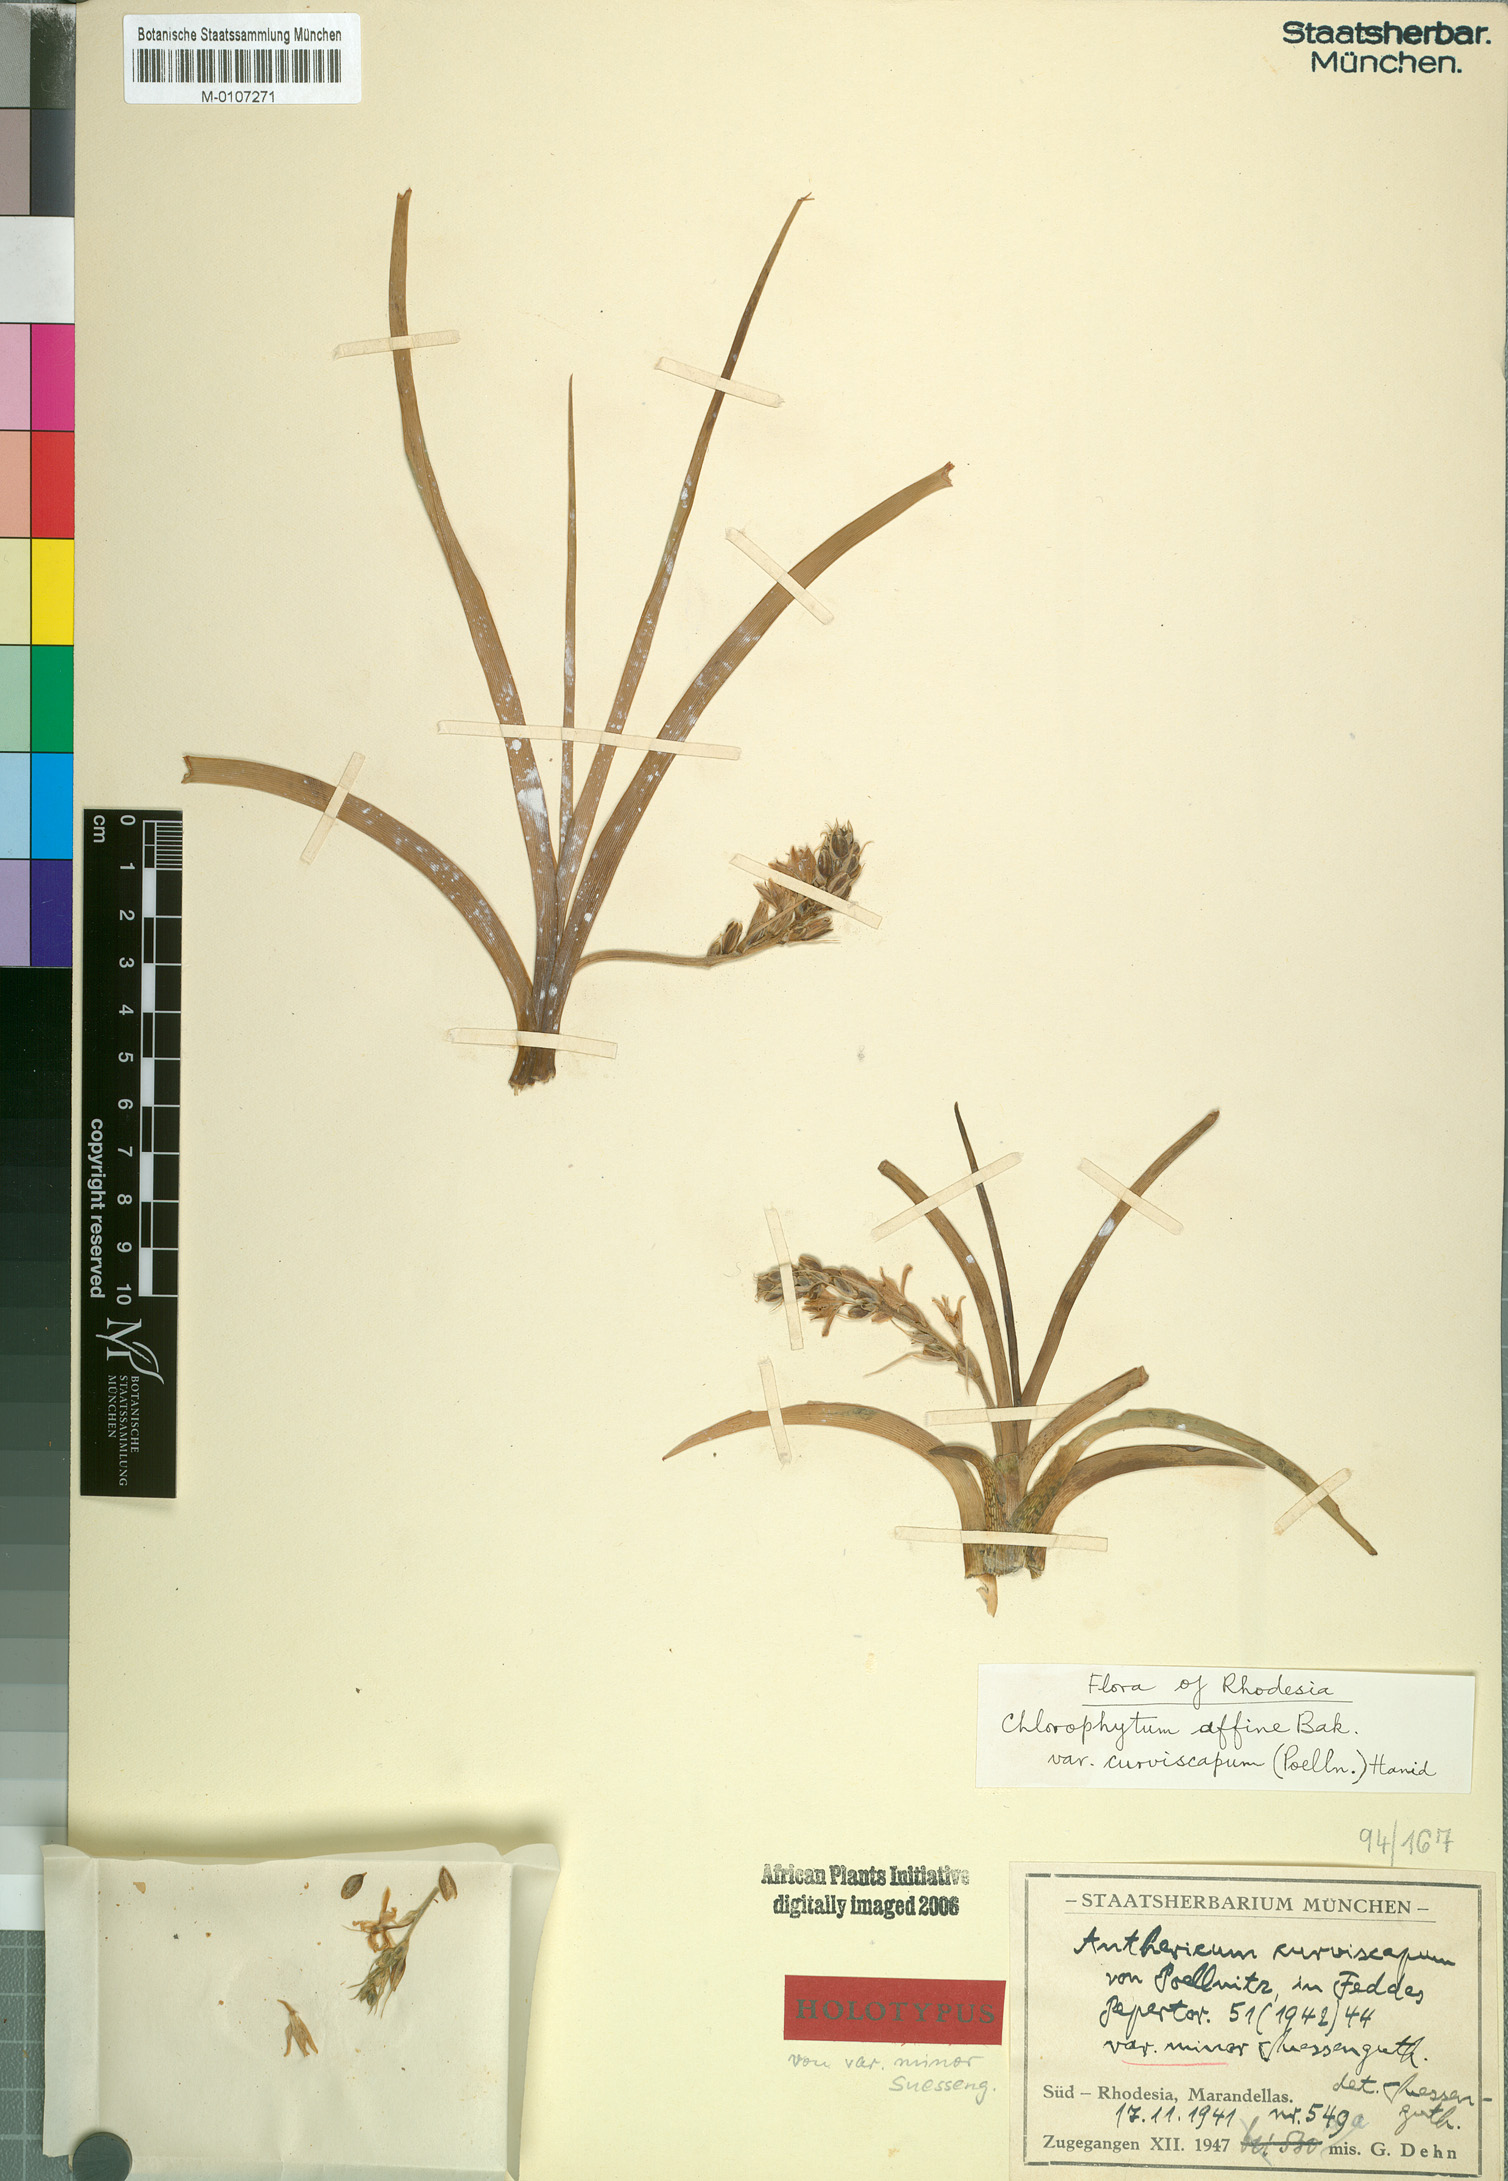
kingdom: Plantae
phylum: Tracheophyta
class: Liliopsida
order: Asparagales
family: Asparagaceae
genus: Chlorophytum
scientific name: Chlorophytum tordense
